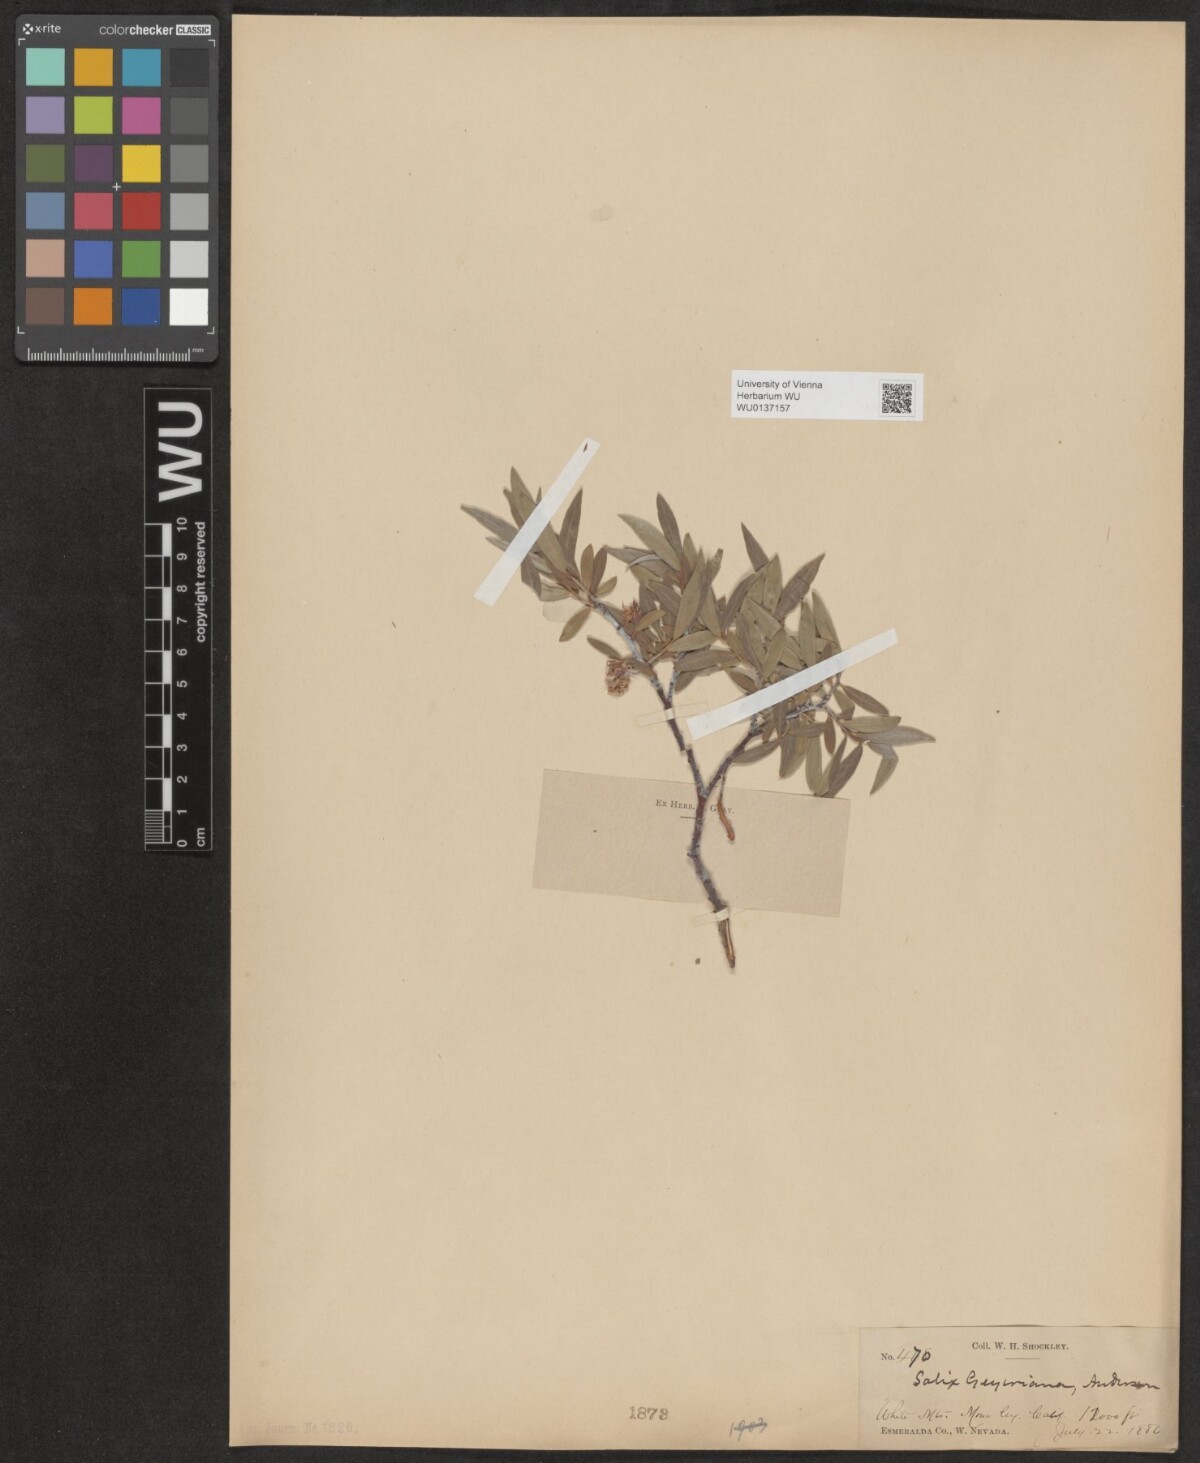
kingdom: Plantae
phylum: Tracheophyta
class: Magnoliopsida
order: Malpighiales
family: Salicaceae
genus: Salix
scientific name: Salix geyeriana
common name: Geyer's willow
